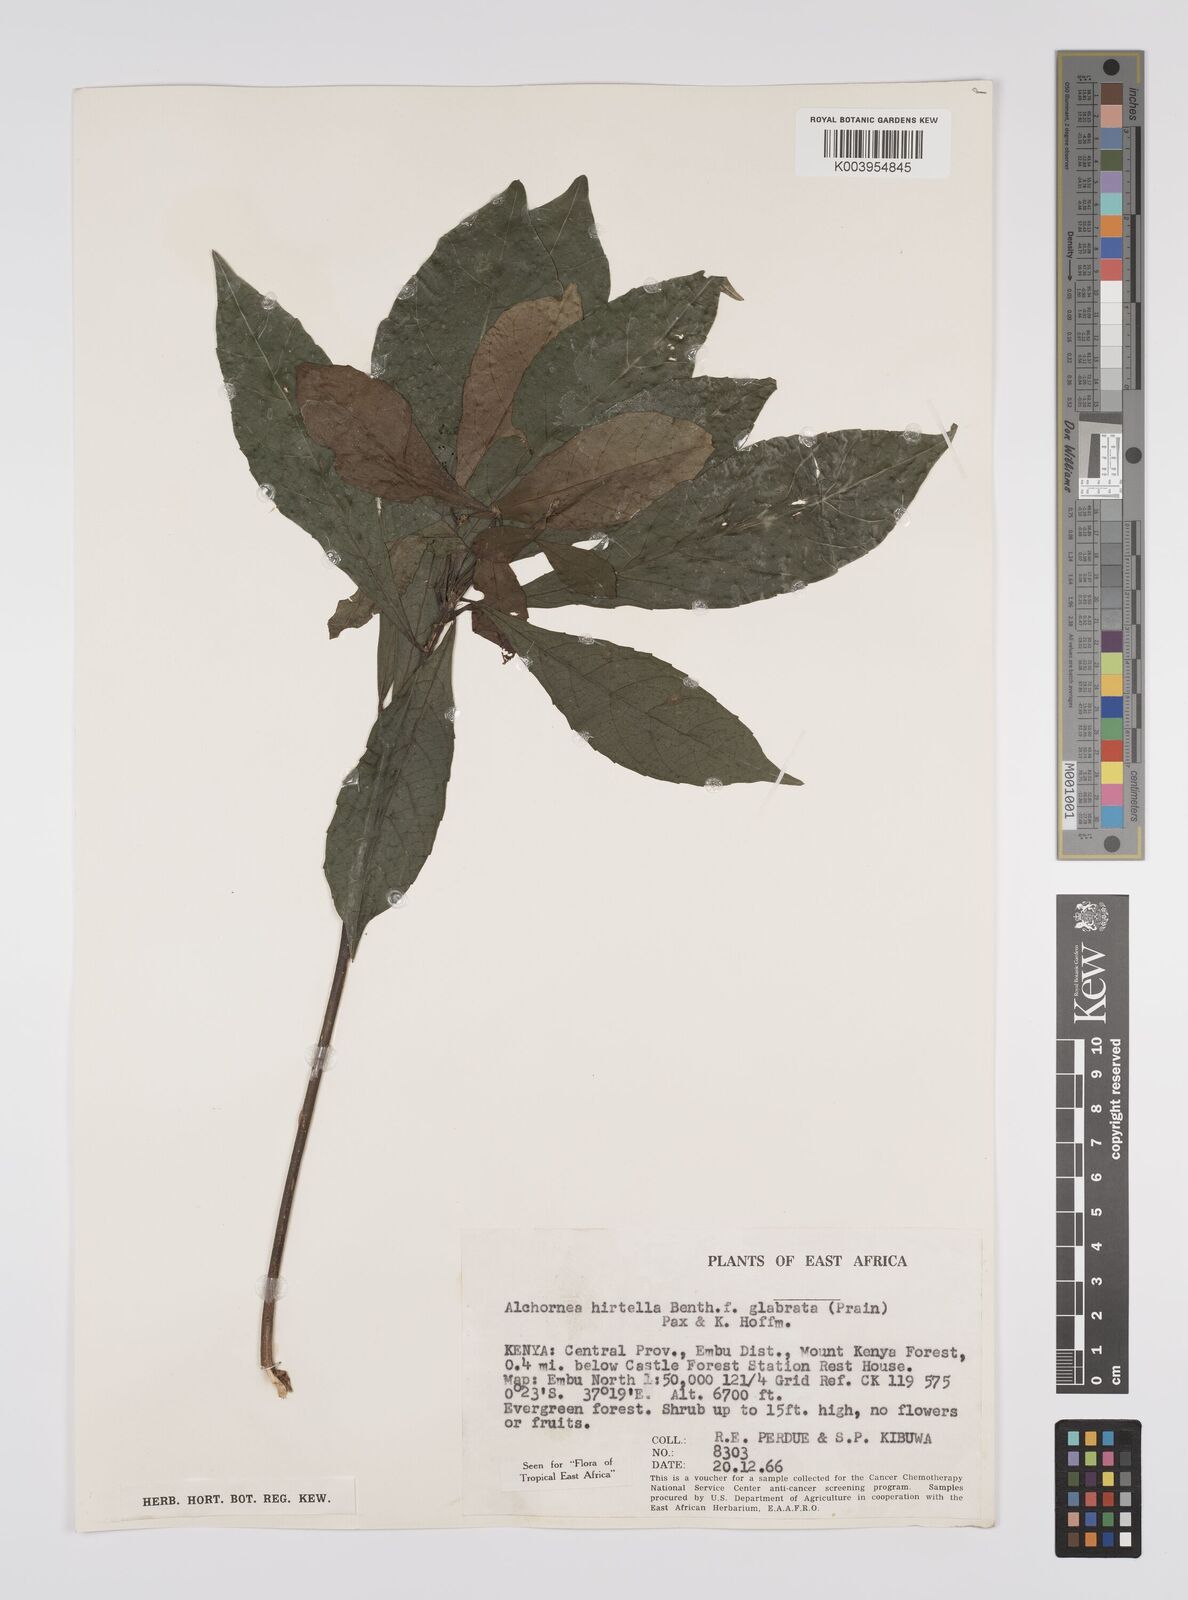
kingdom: Plantae
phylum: Tracheophyta
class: Magnoliopsida
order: Malpighiales
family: Euphorbiaceae
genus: Alchornea
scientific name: Alchornea hirtella
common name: Forest bead-string
